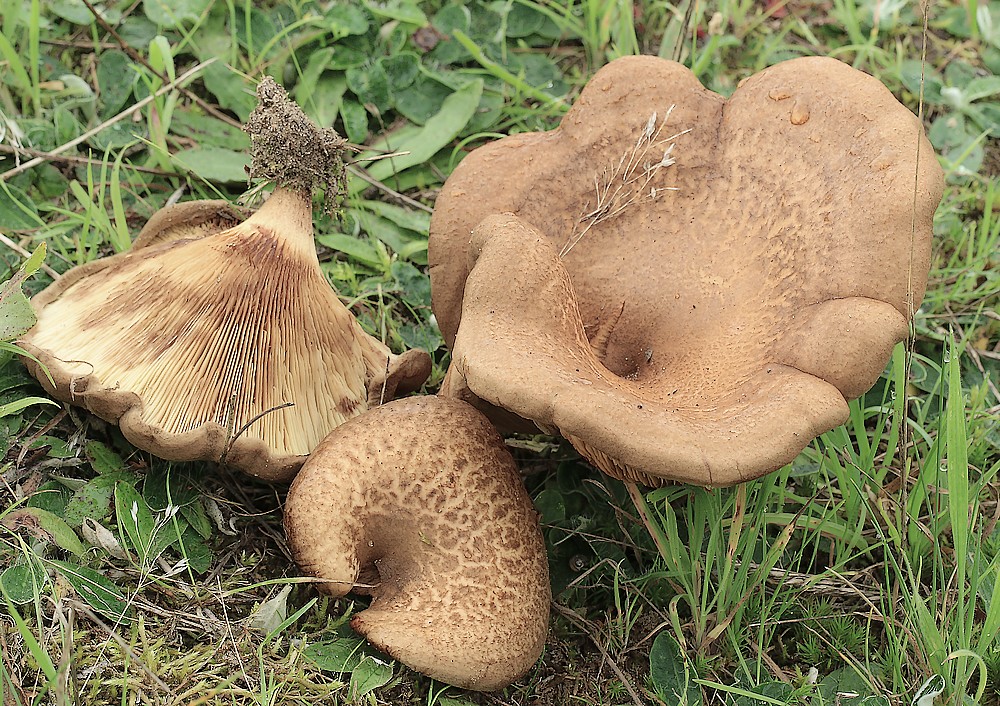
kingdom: Fungi
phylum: Basidiomycota
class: Agaricomycetes
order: Boletales
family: Paxillaceae
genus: Paxillus
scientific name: Paxillus
